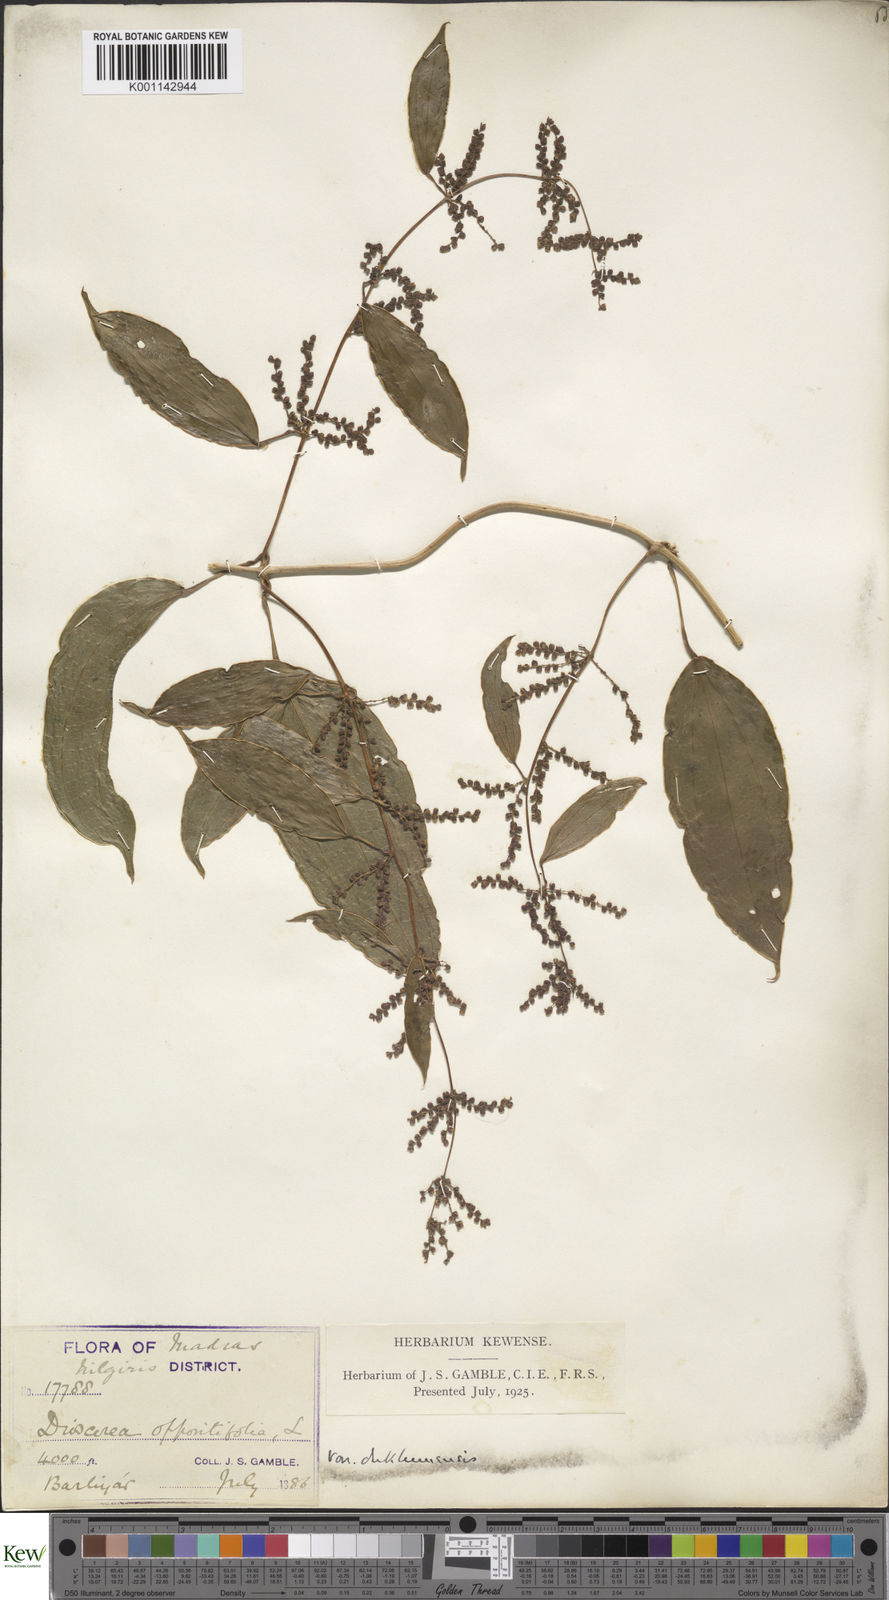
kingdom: Plantae
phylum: Tracheophyta
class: Liliopsida
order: Dioscoreales
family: Dioscoreaceae
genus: Dioscorea
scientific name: Dioscorea oppositifolia
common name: Chinese yam
